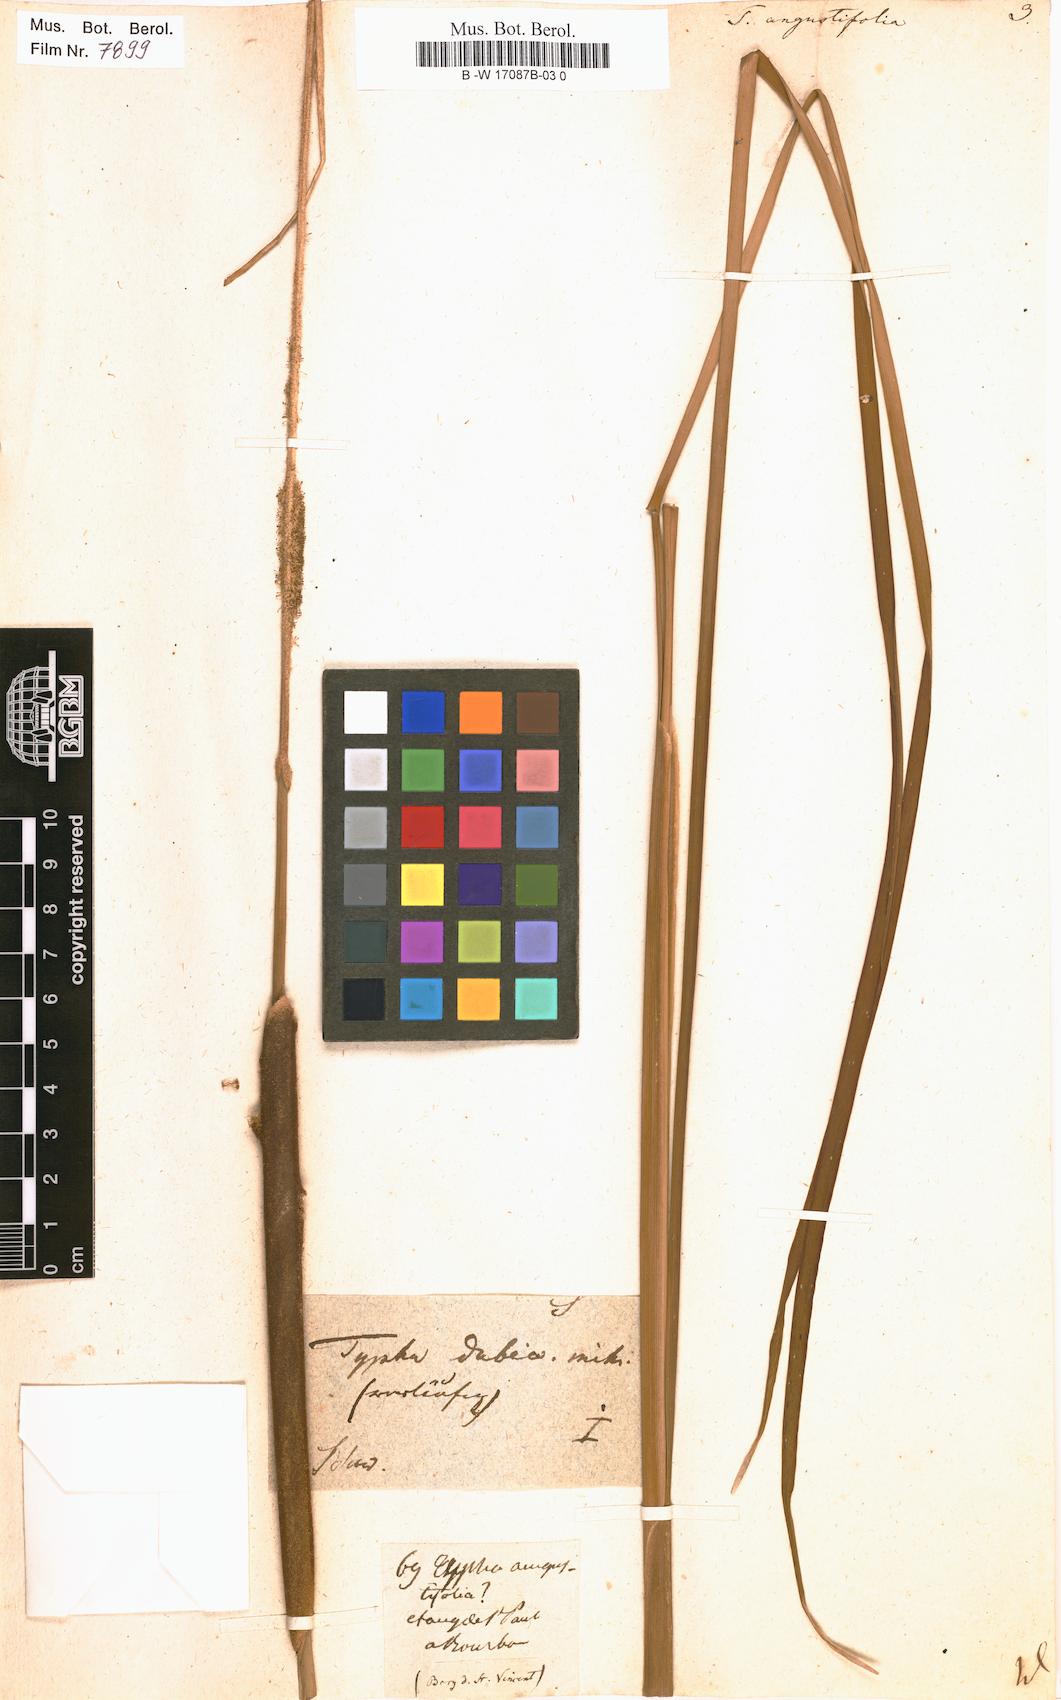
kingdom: Plantae
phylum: Tracheophyta
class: Liliopsida
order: Poales
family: Typhaceae
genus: Typha
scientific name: Typha angustifolia
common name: Lesser bulrush
